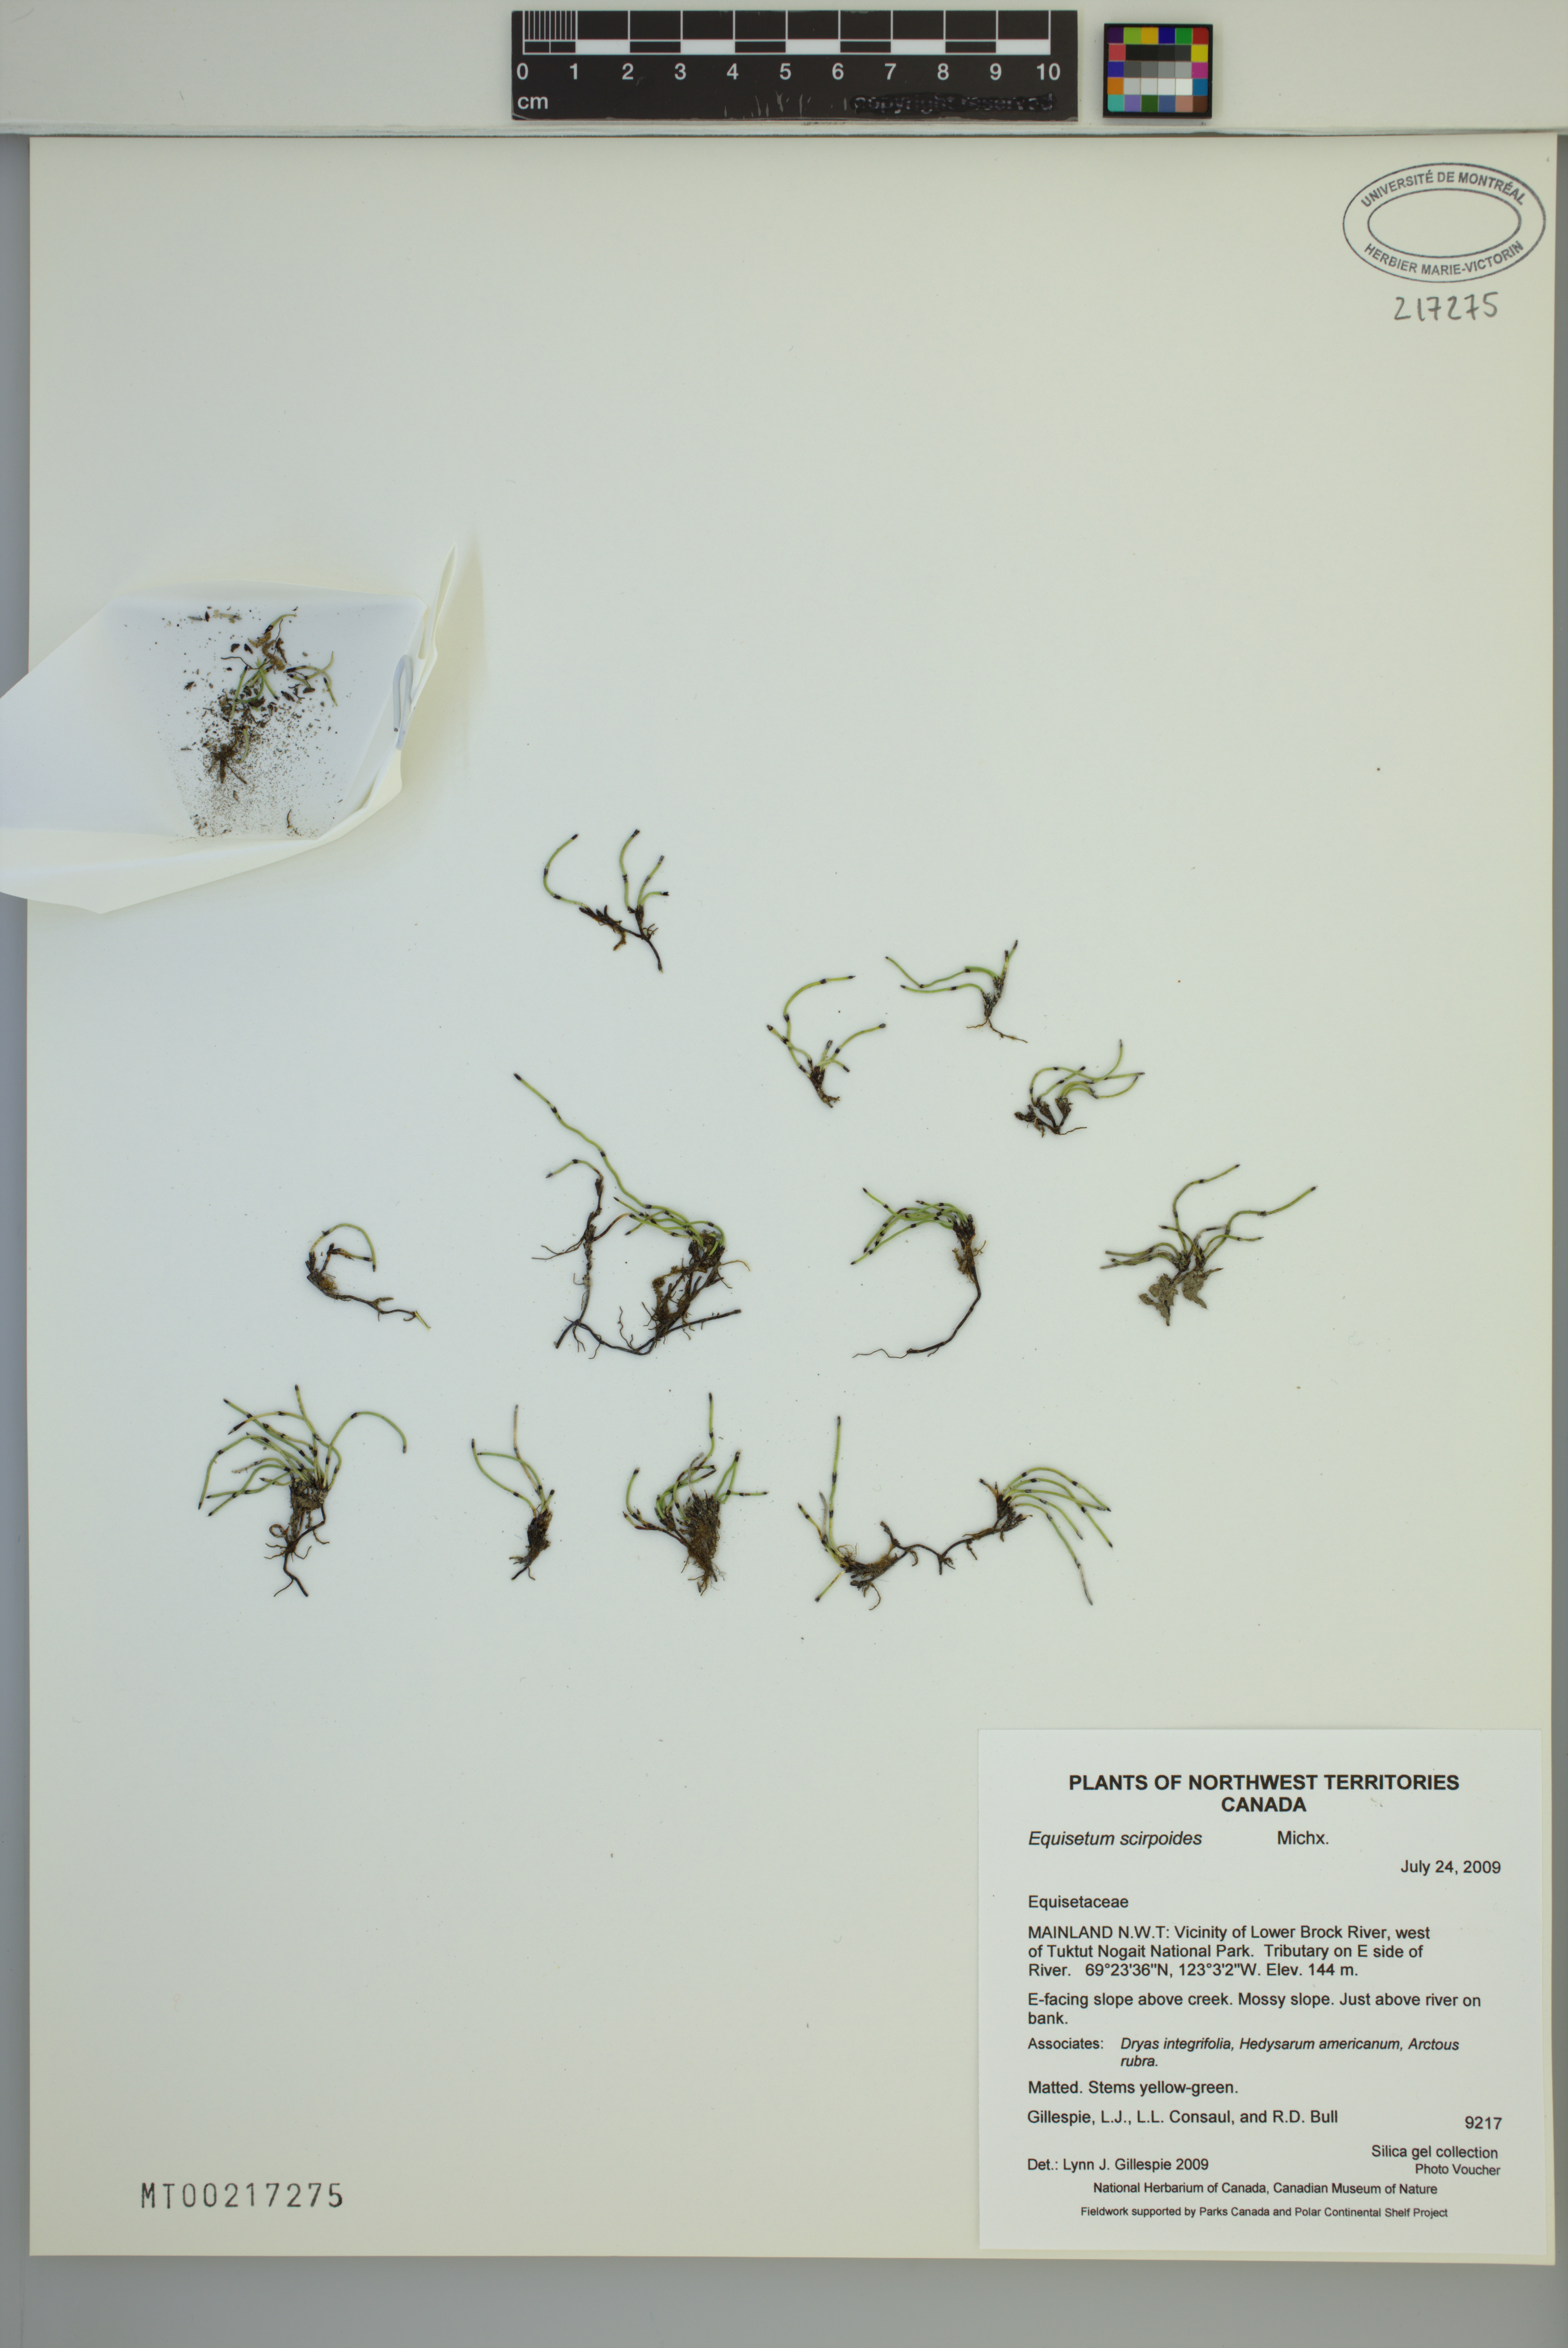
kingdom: Plantae
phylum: Tracheophyta
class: Polypodiopsida
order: Equisetales
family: Equisetaceae
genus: Equisetum
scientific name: Equisetum scirpoides
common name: Delicate horsetail
